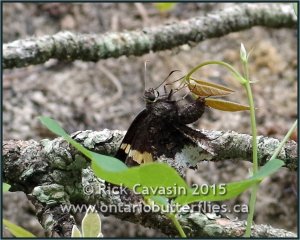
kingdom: Animalia
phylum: Arthropoda
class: Insecta
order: Lepidoptera
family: Hesperiidae
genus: Achalarus
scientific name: Achalarus lyciades
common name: Hoary Edge
